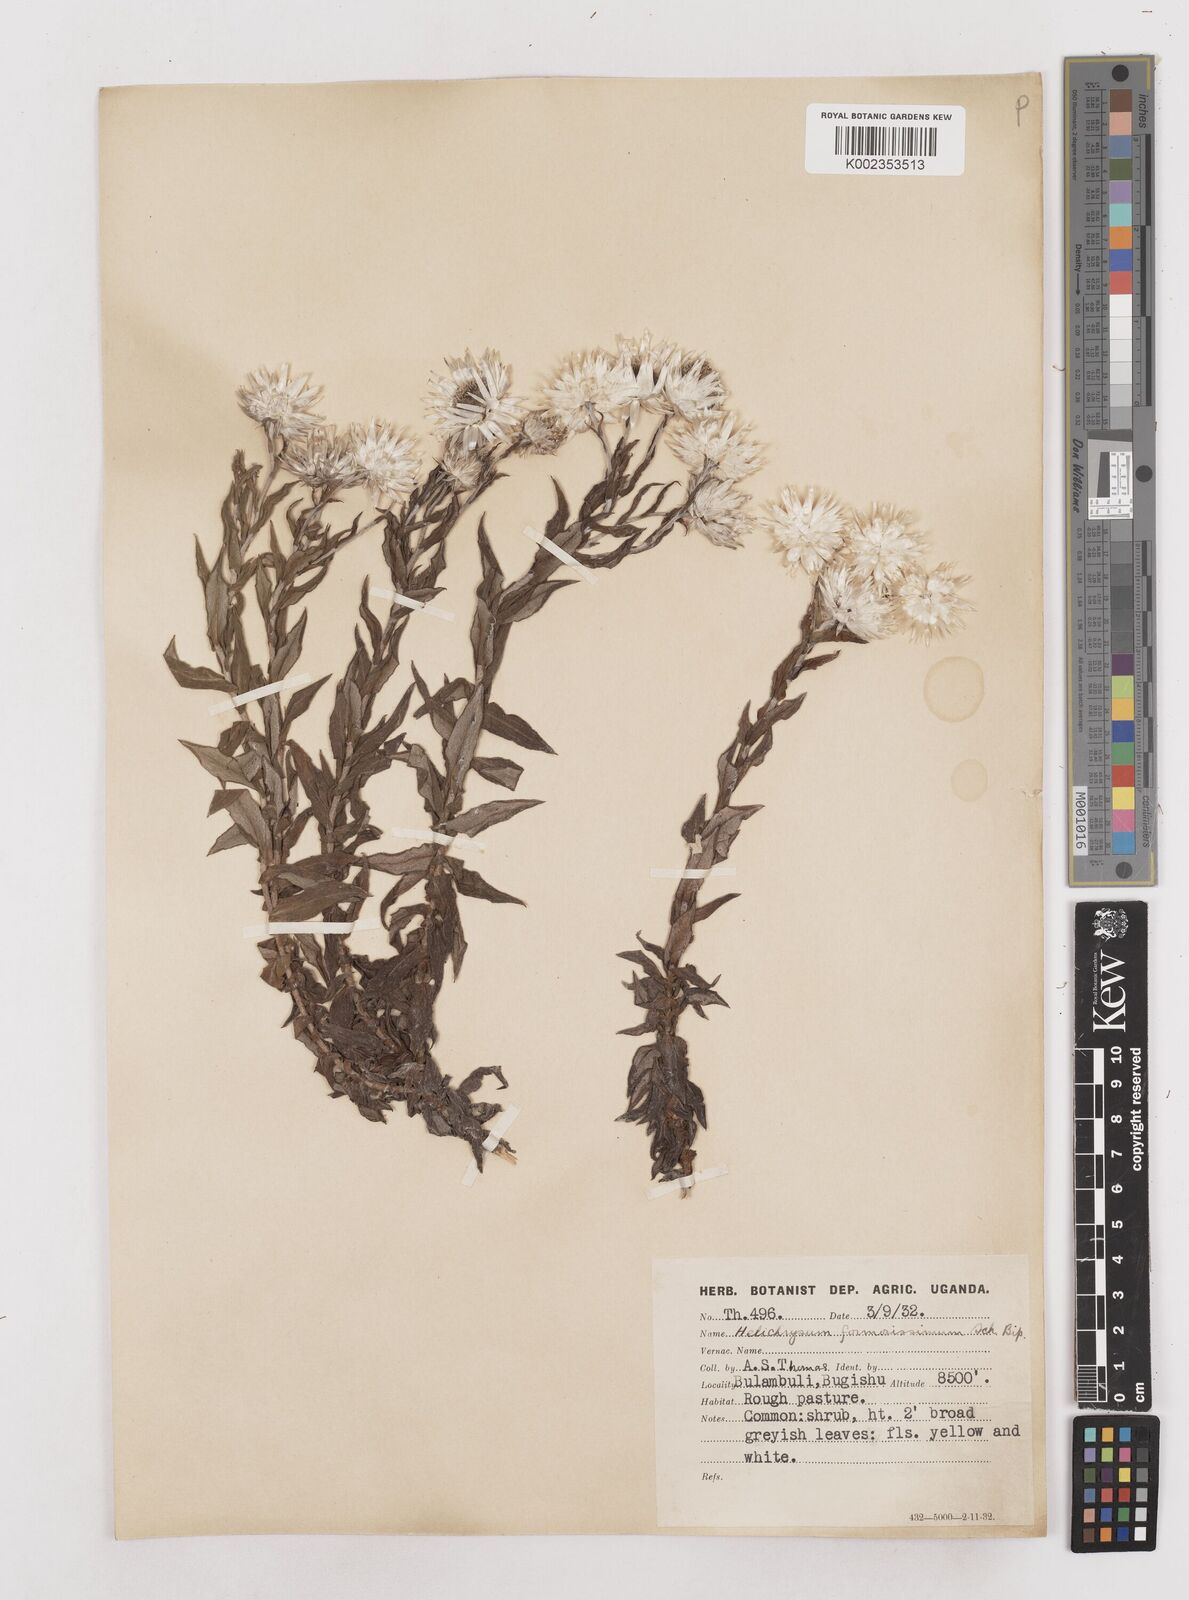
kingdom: Plantae
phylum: Tracheophyta
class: Magnoliopsida
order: Asterales
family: Asteraceae
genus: Helichrysum
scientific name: Helichrysum formosissimum
